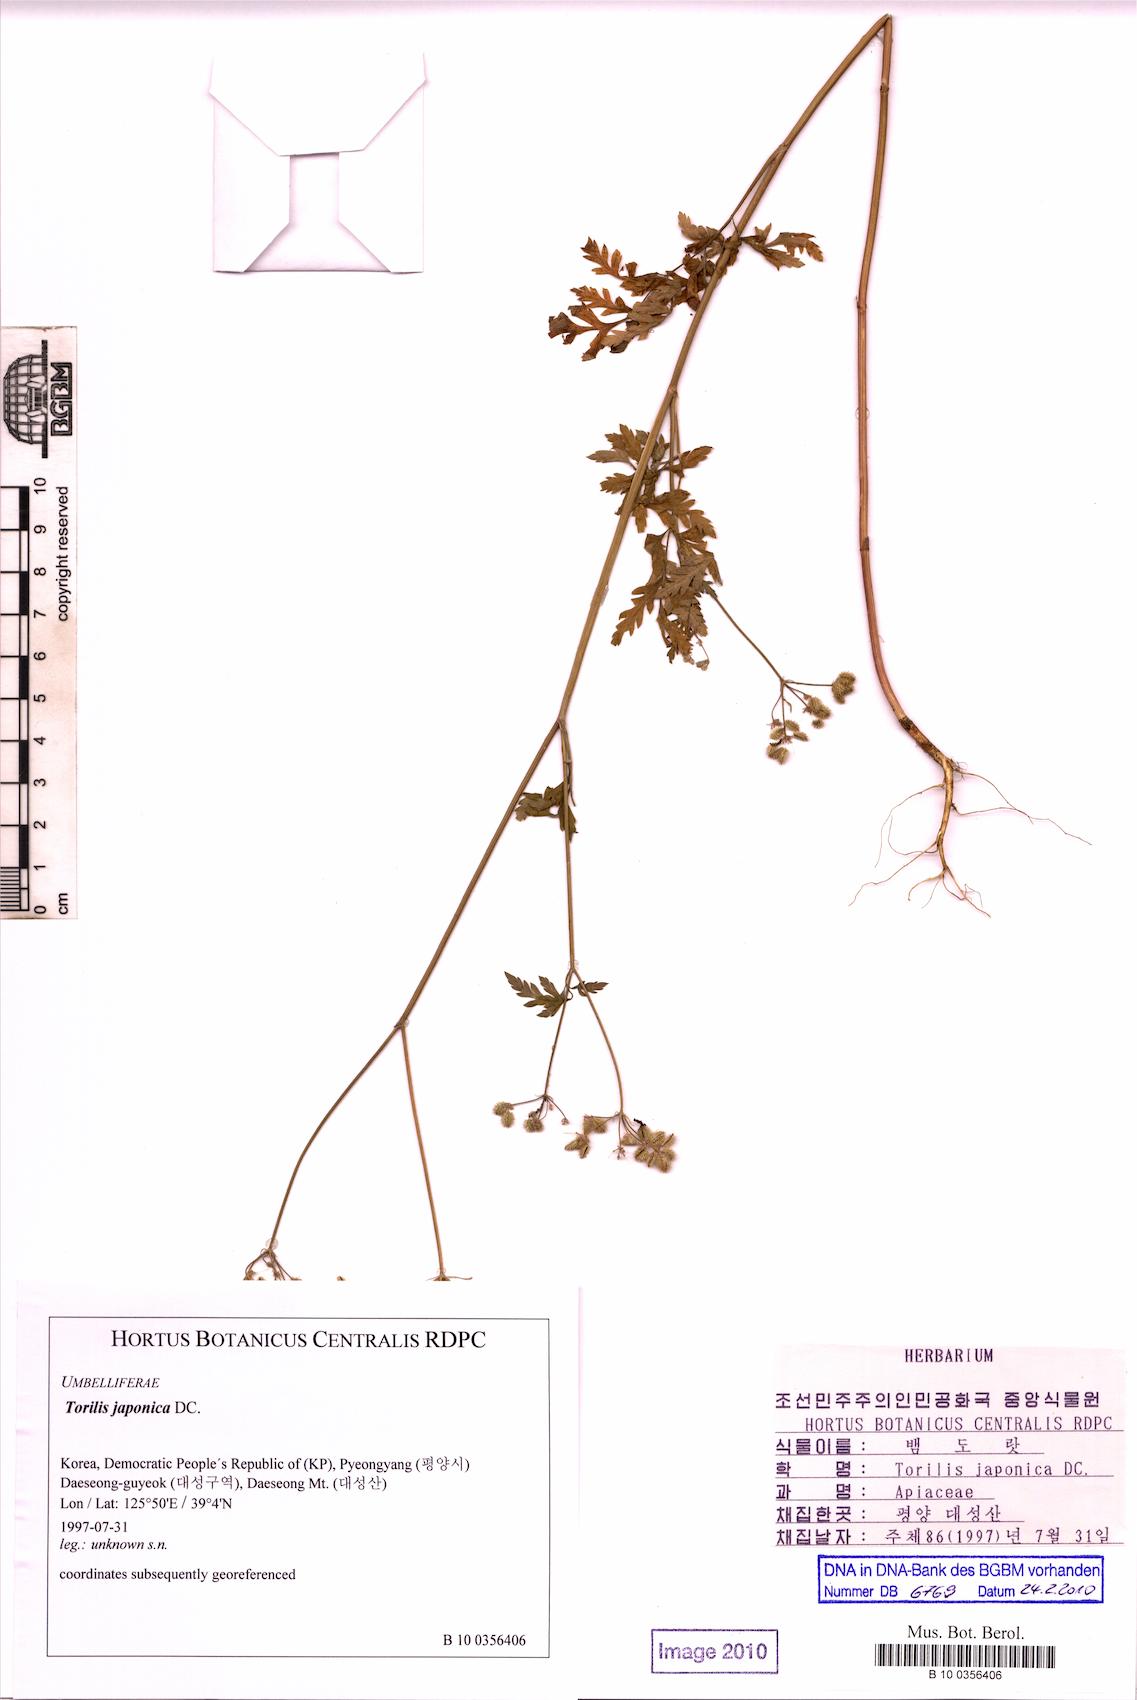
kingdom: Plantae
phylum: Tracheophyta
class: Magnoliopsida
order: Apiales
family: Apiaceae
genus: Torilis
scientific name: Torilis japonica
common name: Upright hedge-parsley
